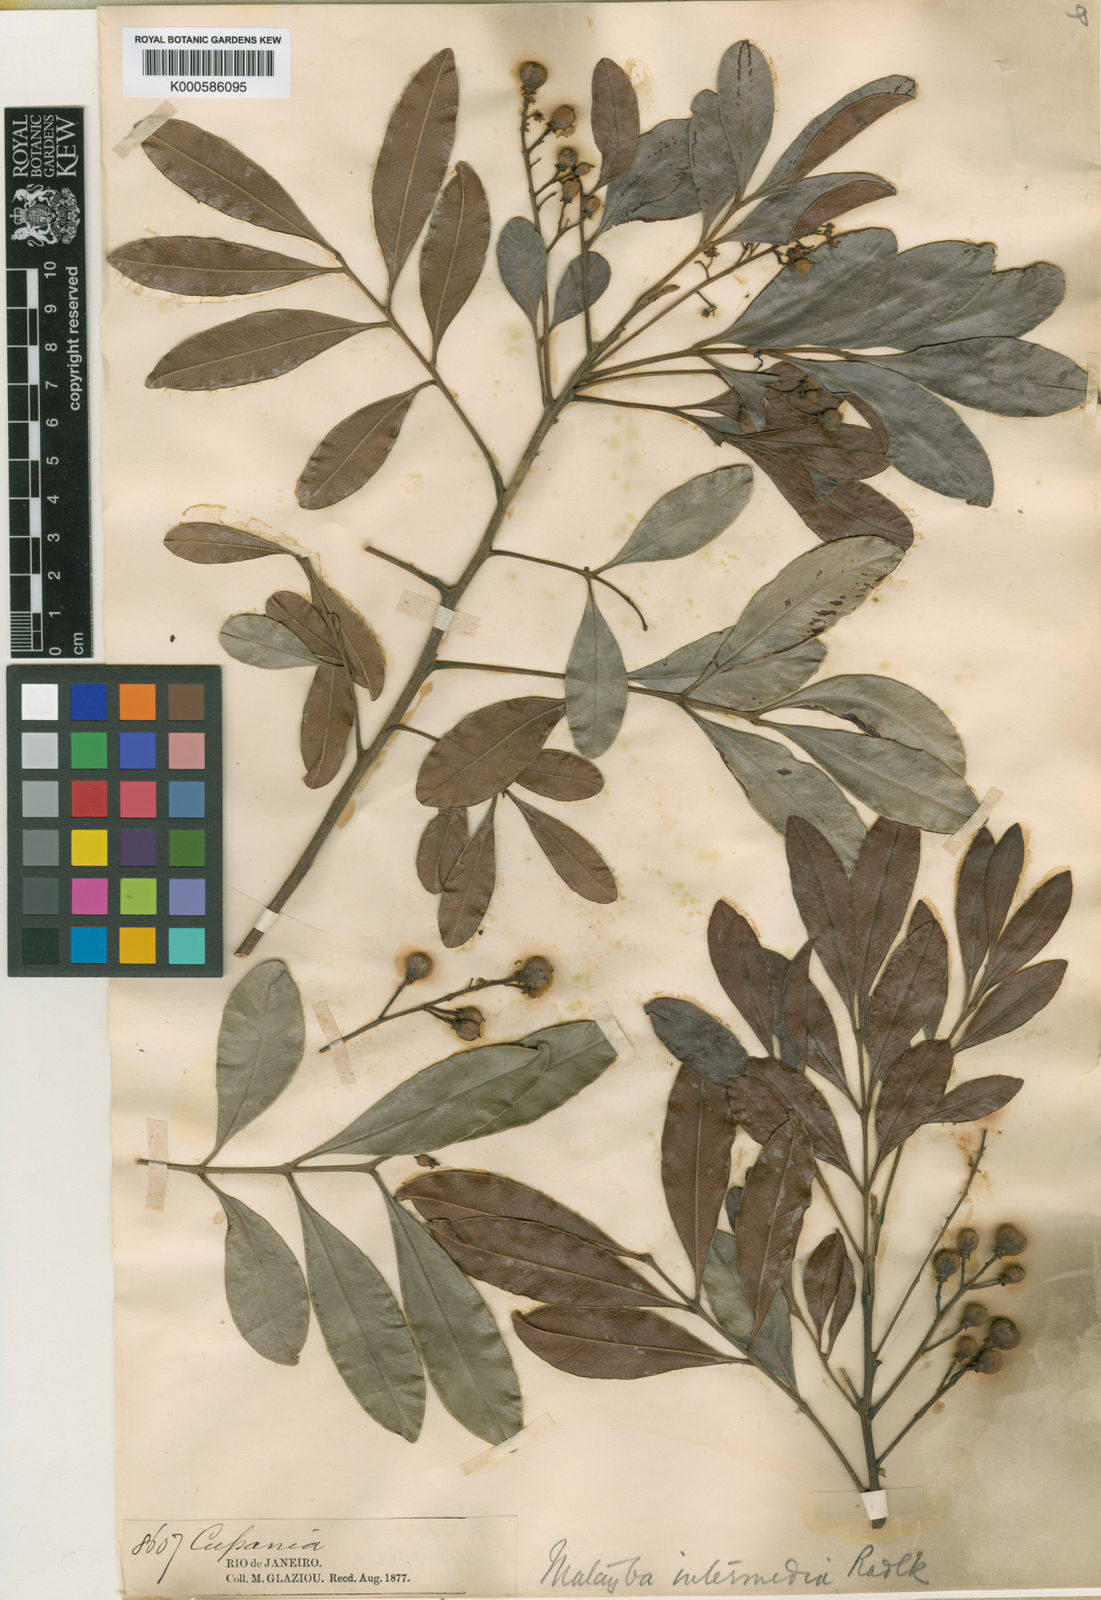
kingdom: Plantae
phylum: Tracheophyta
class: Magnoliopsida
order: Sapindales
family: Sapindaceae
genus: Matayba
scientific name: Matayba intermedia
